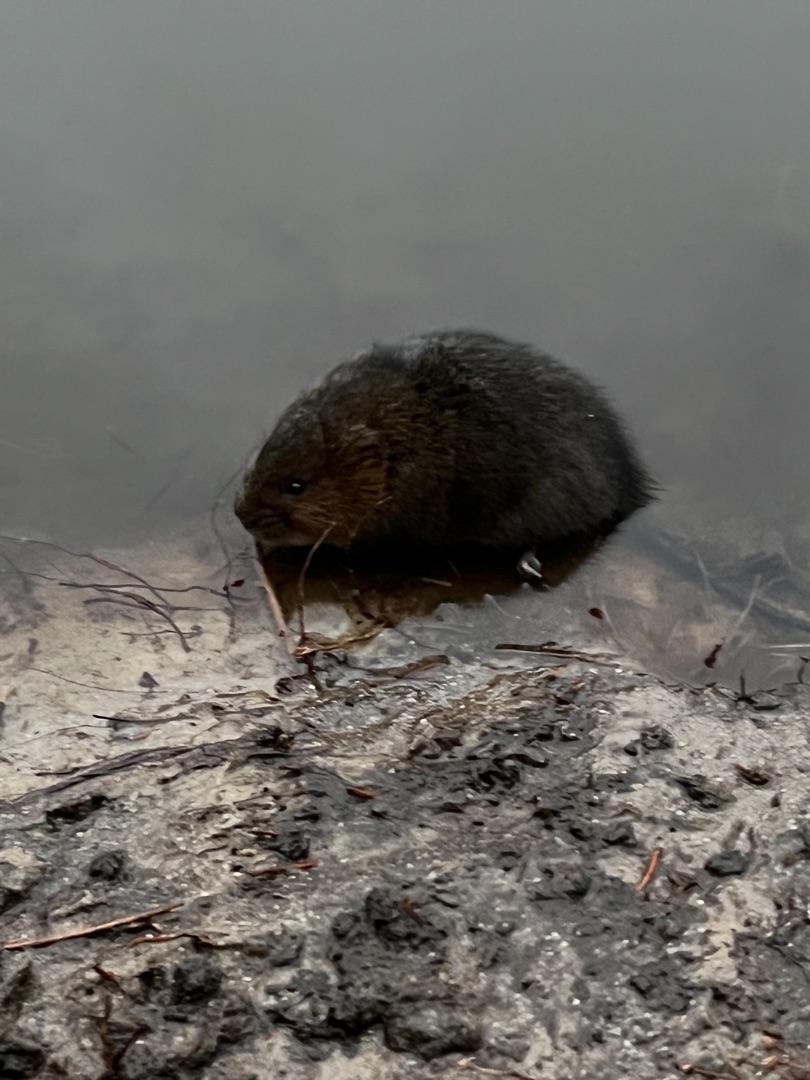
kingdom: Animalia
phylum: Chordata
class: Mammalia
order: Rodentia
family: Cricetidae
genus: Arvicola
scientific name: Arvicola amphibius
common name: Mosegris
